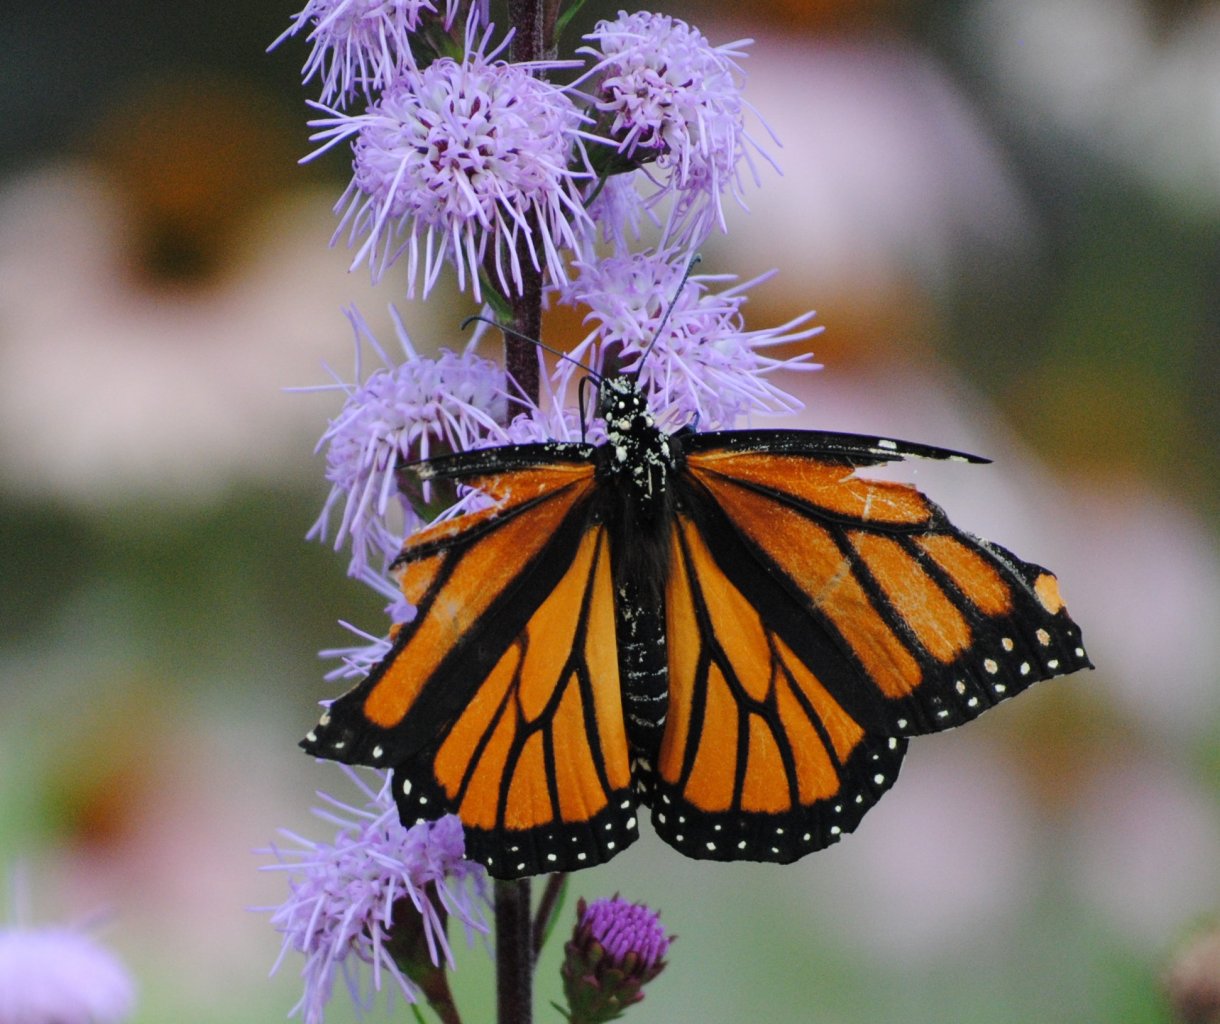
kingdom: Animalia
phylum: Arthropoda
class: Insecta
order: Lepidoptera
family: Nymphalidae
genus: Danaus
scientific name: Danaus plexippus
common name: Monarch
